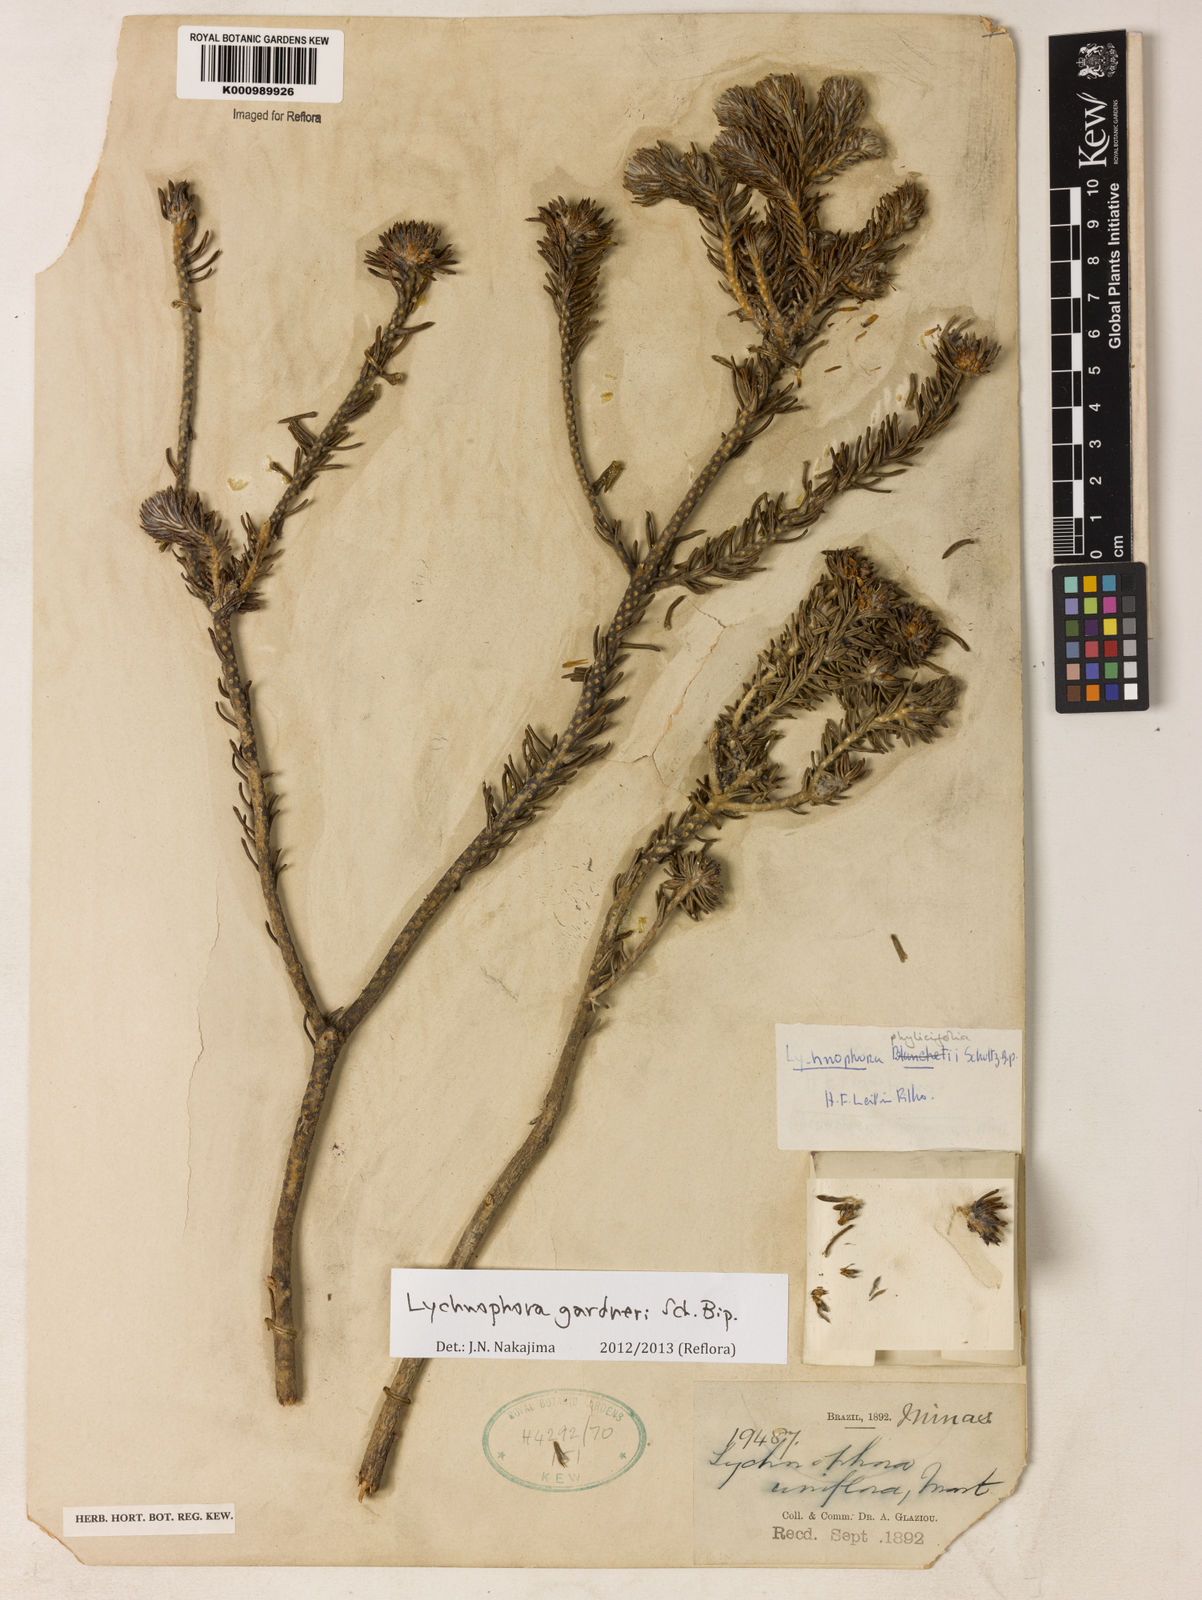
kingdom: Plantae
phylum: Tracheophyta
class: Magnoliopsida
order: Asterales
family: Asteraceae
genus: Lychnophora
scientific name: Lychnophora gardneri
